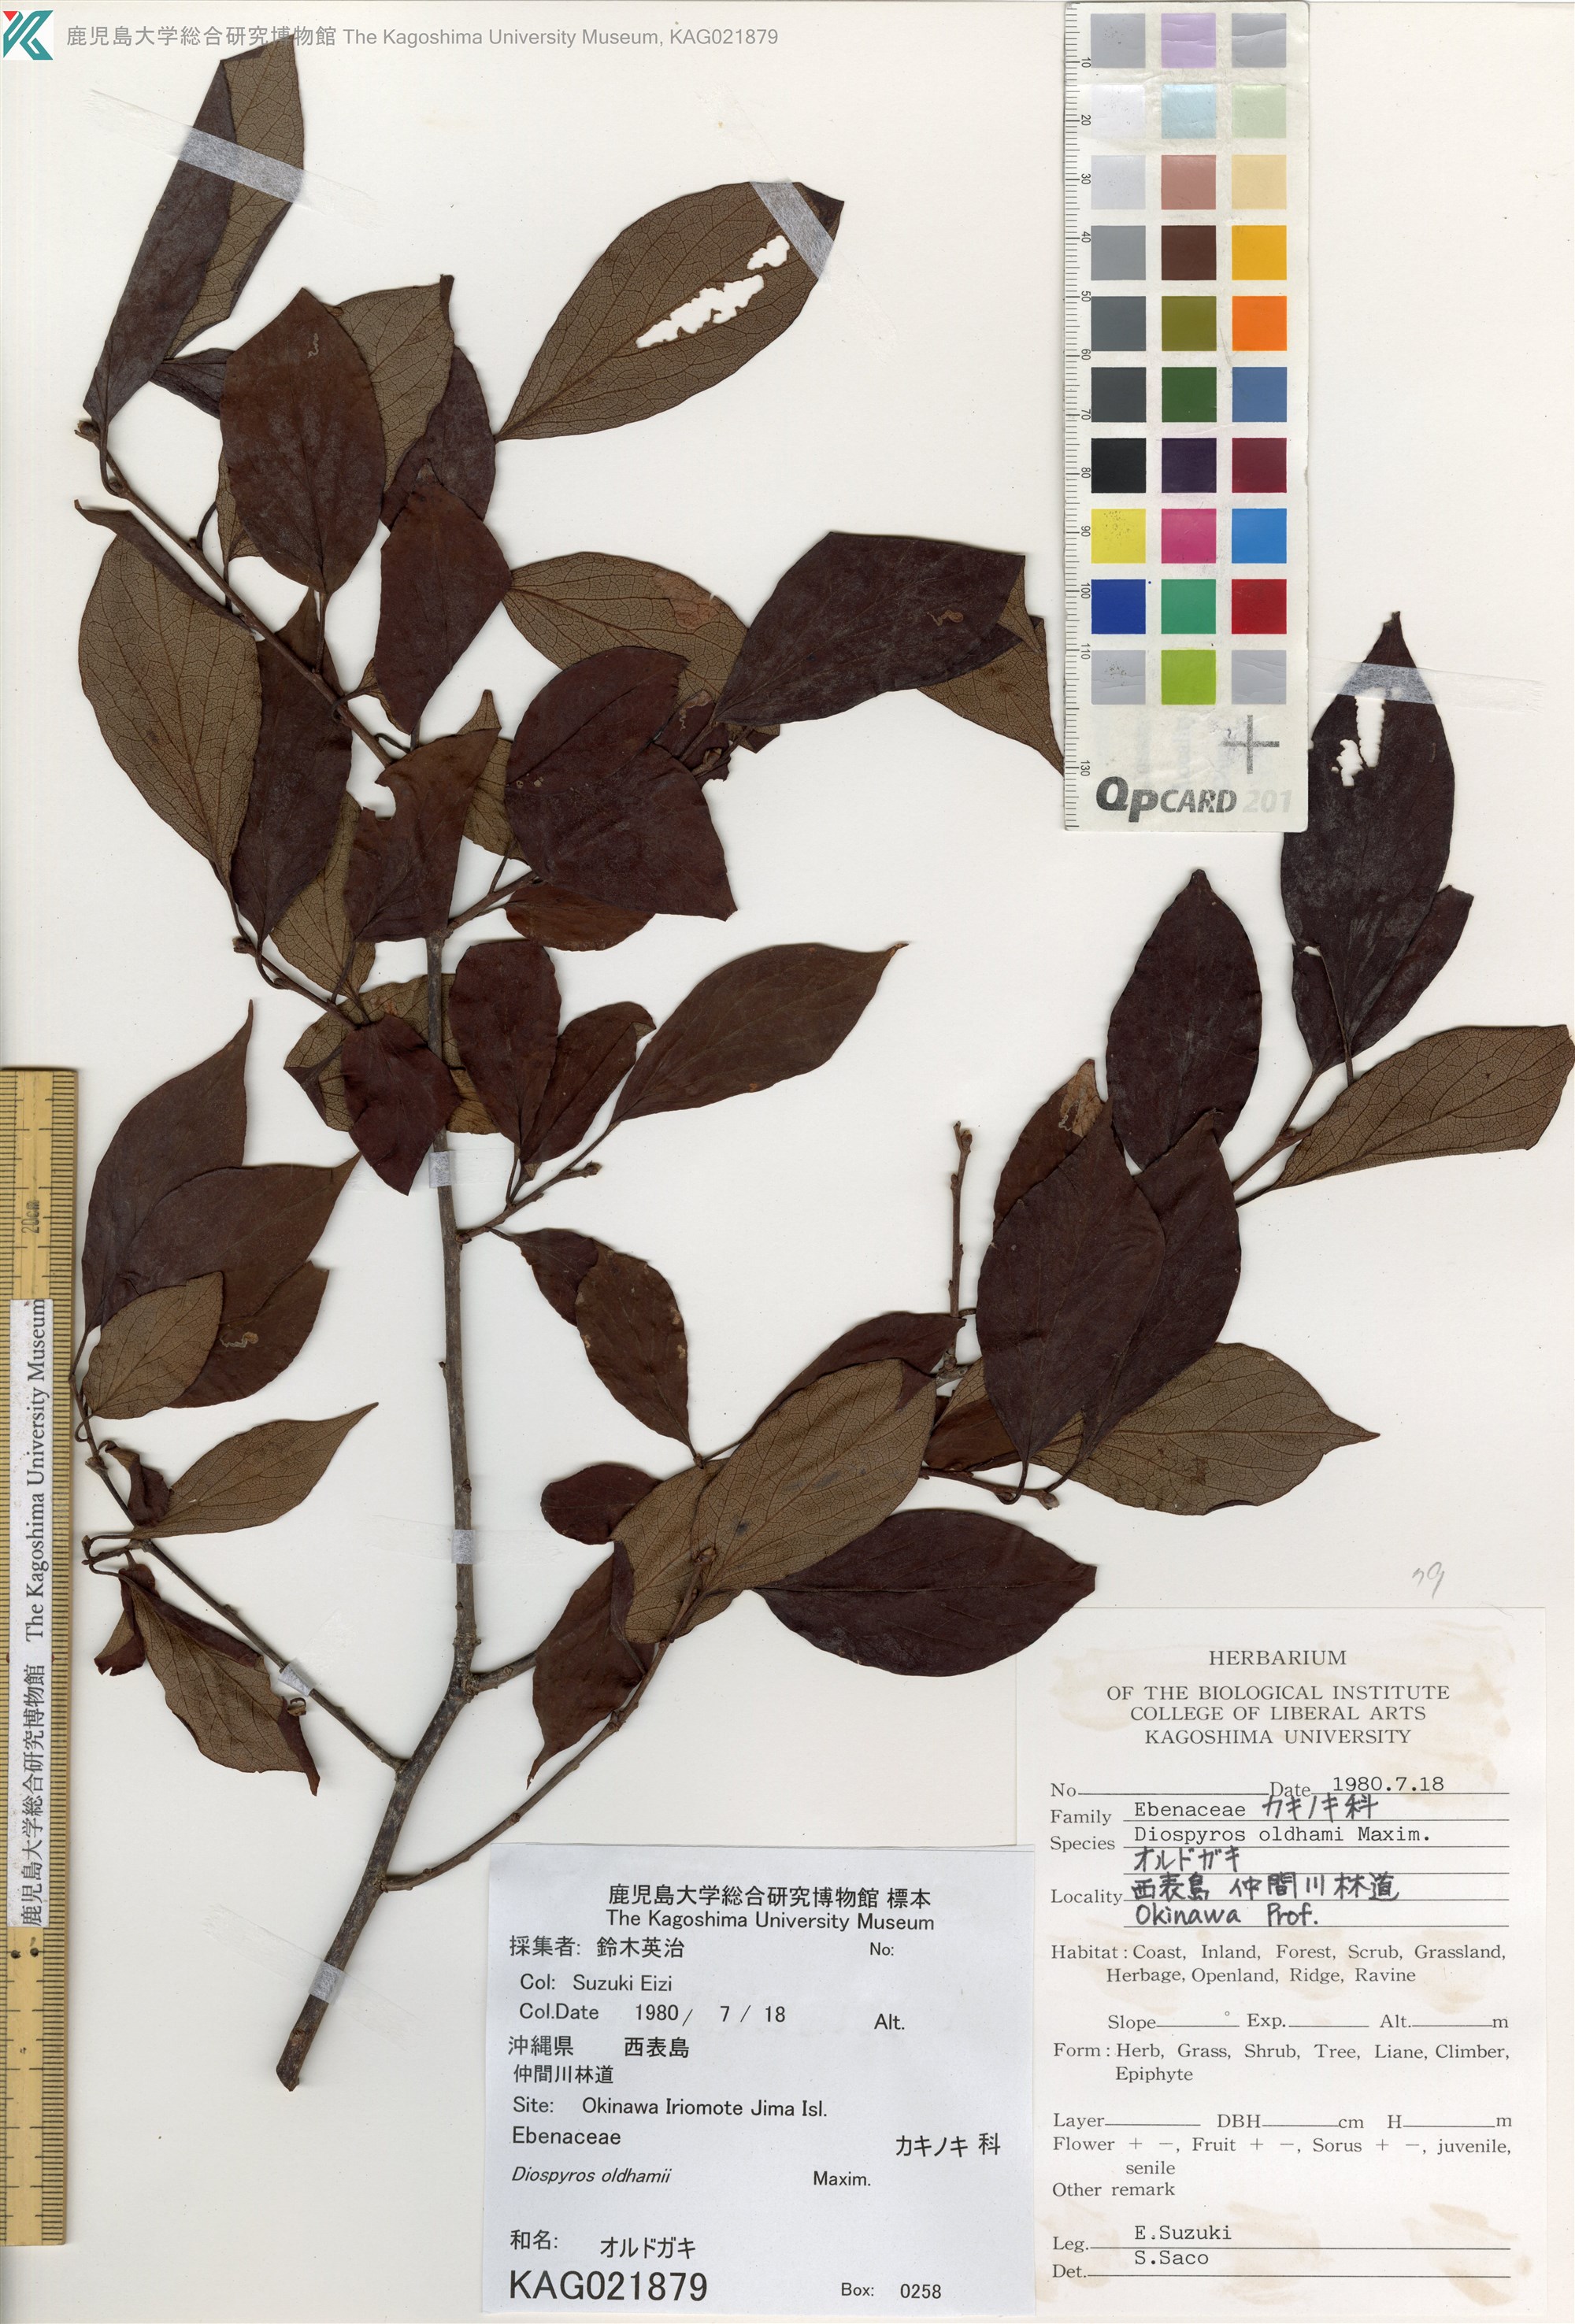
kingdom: Plantae
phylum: Tracheophyta
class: Magnoliopsida
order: Ericales
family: Ebenaceae
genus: Diospyros
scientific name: Diospyros oldhamii
